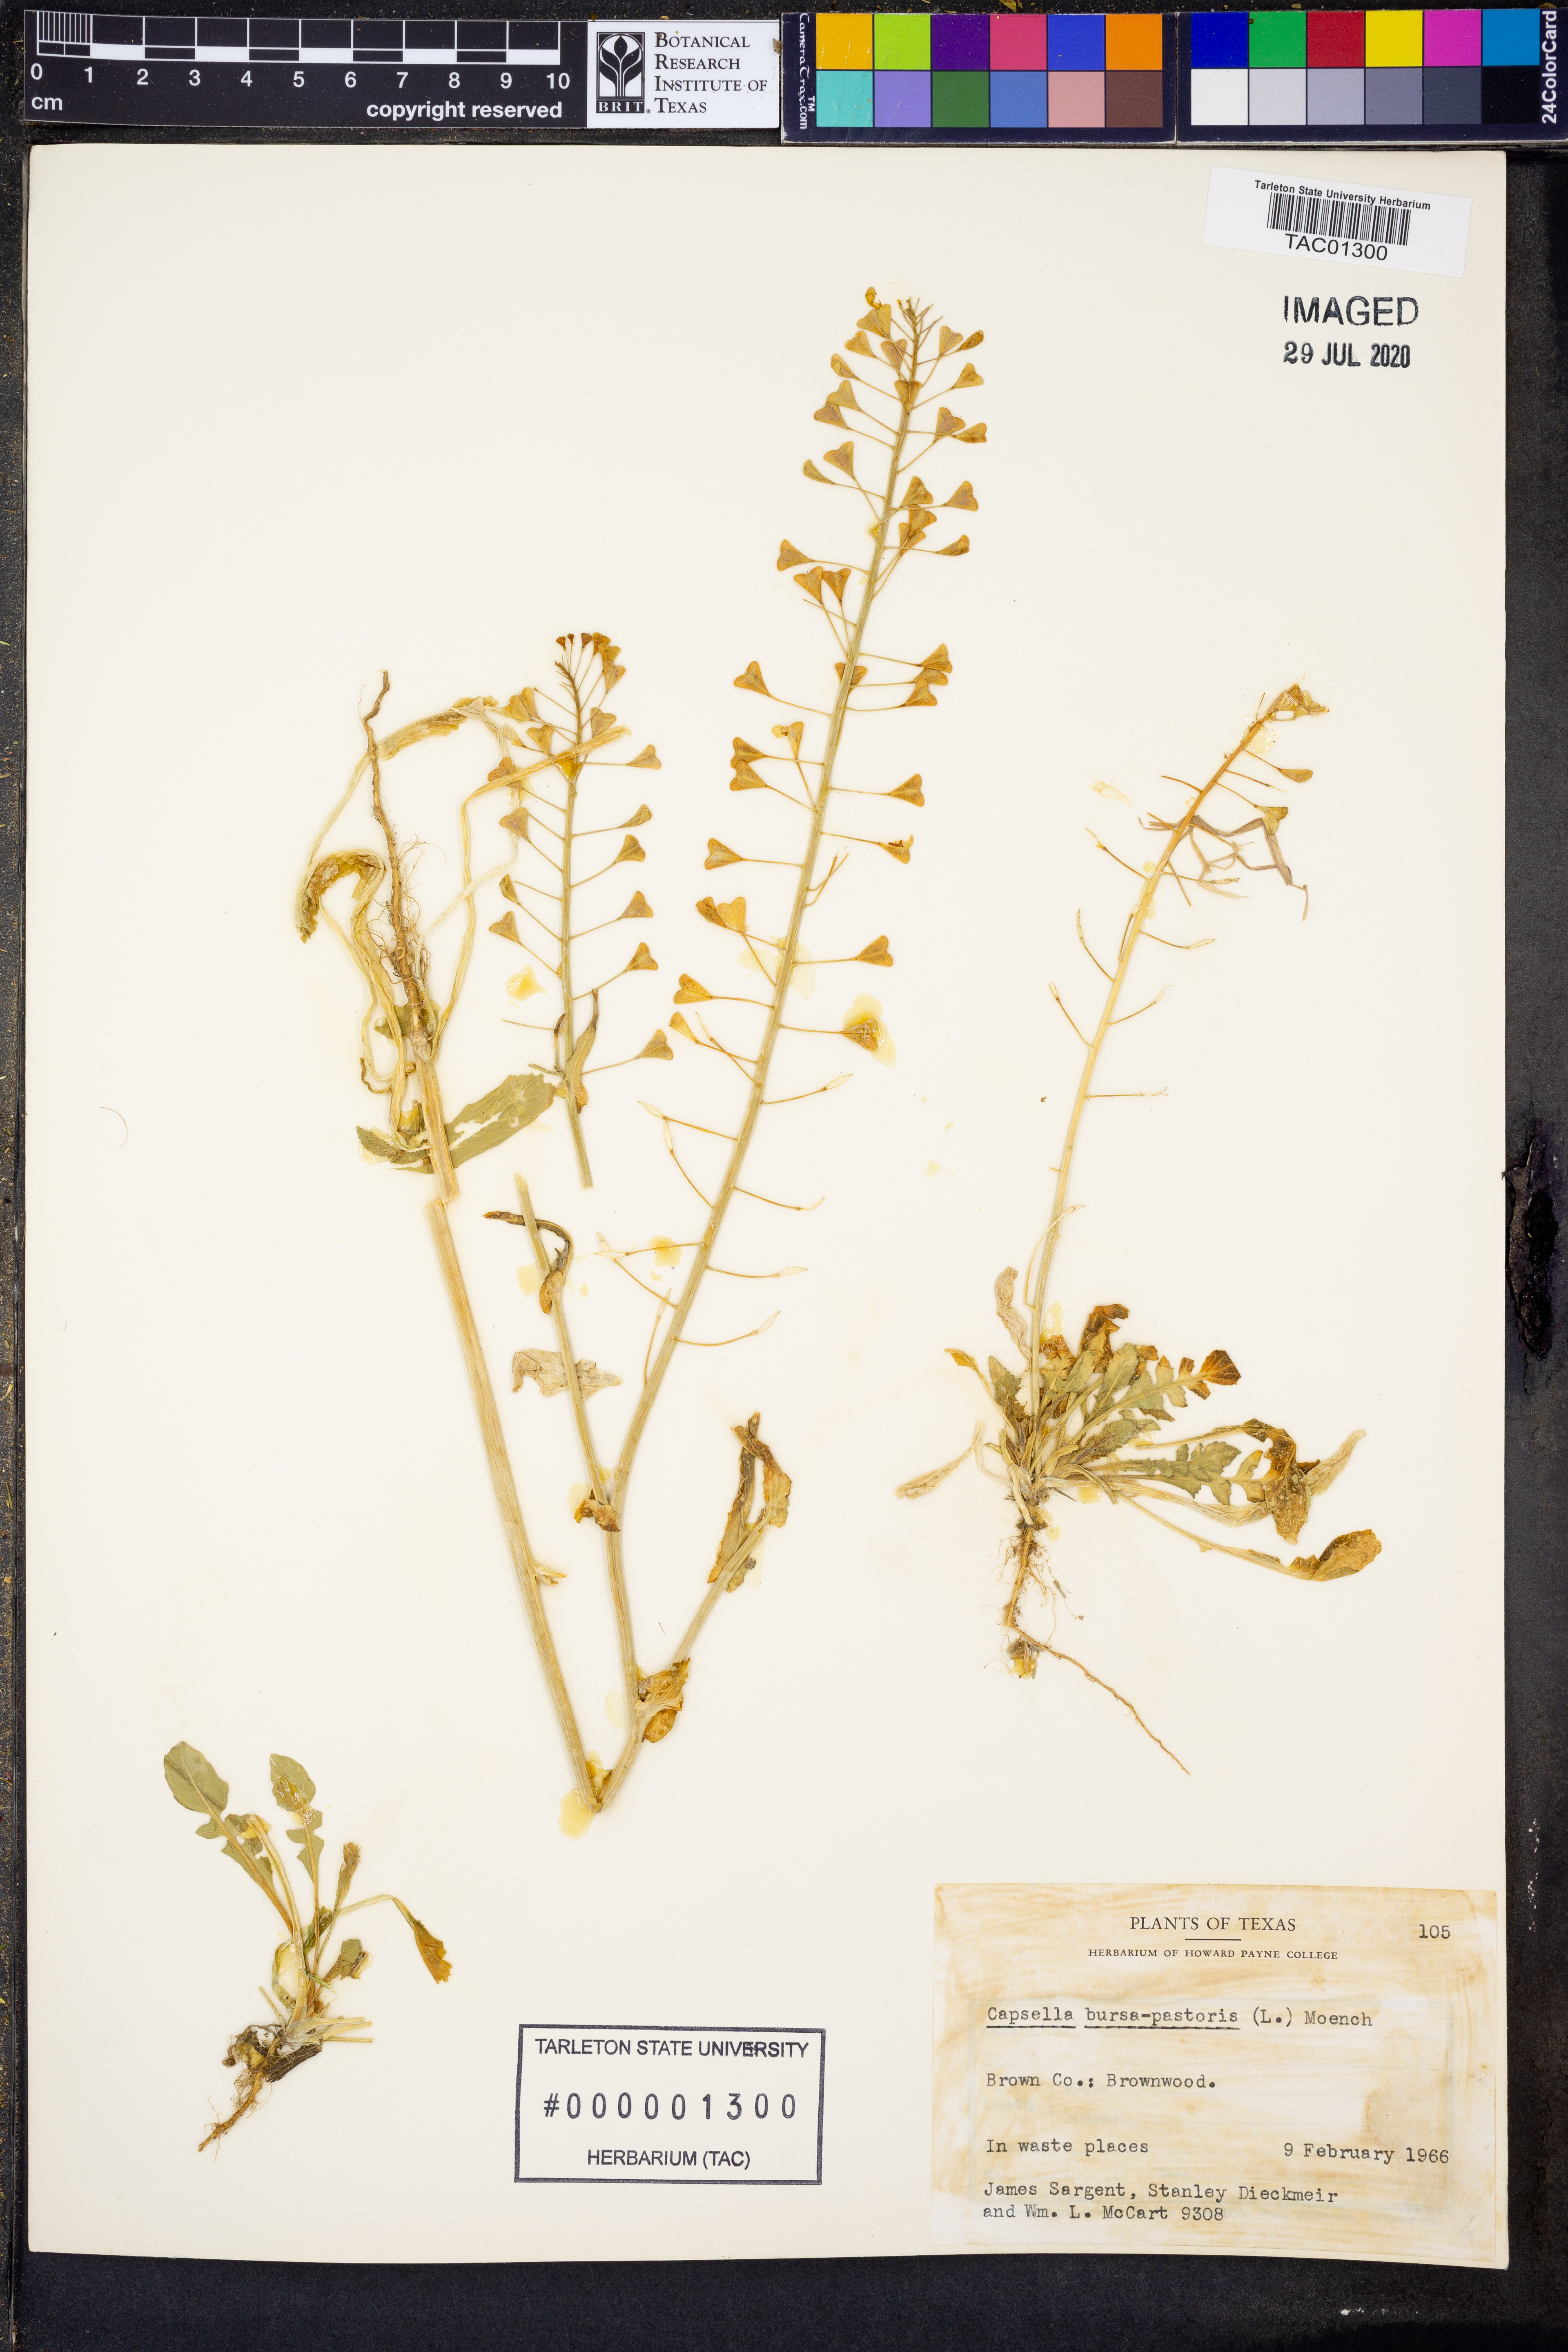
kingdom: Plantae
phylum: Tracheophyta
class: Magnoliopsida
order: Brassicales
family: Brassicaceae
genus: Capsella
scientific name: Capsella bursa-pastoris
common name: Shepherd's purse
